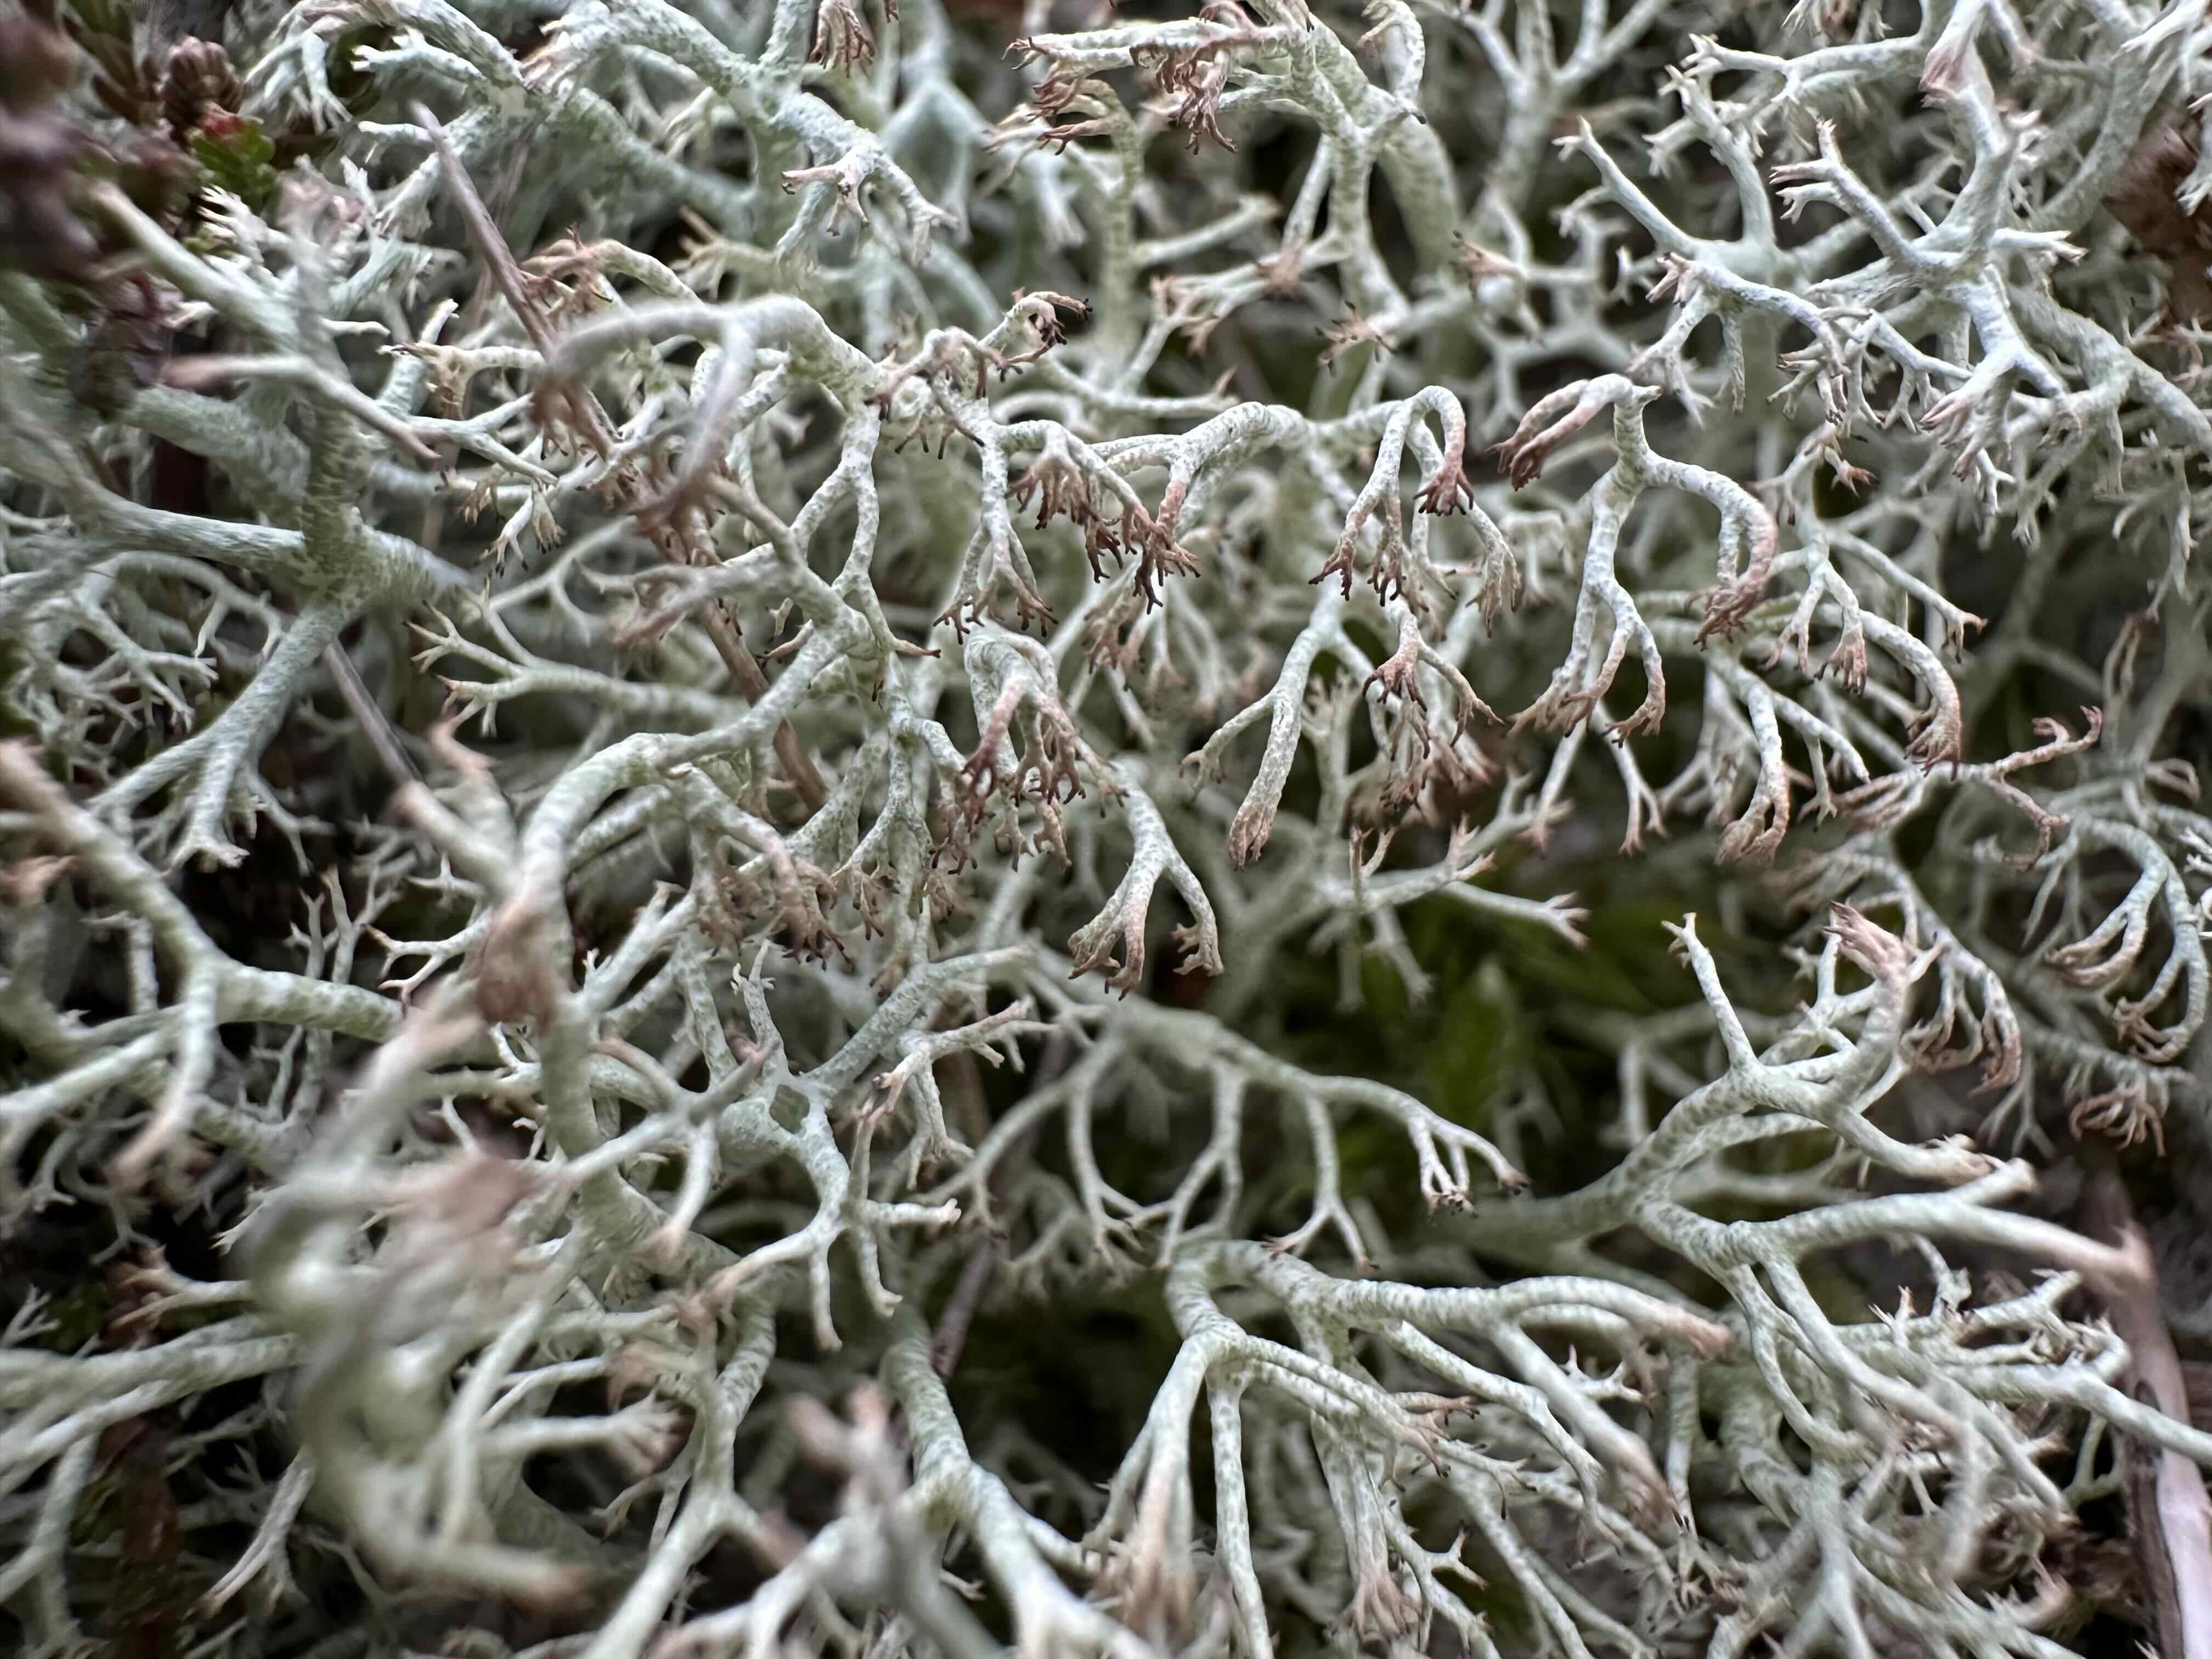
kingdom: Fungi
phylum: Ascomycota
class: Lecanoromycetes
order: Lecanorales
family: Cladoniaceae
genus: Cladonia
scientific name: Cladonia ciliata
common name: spinkel rensdyrlav
